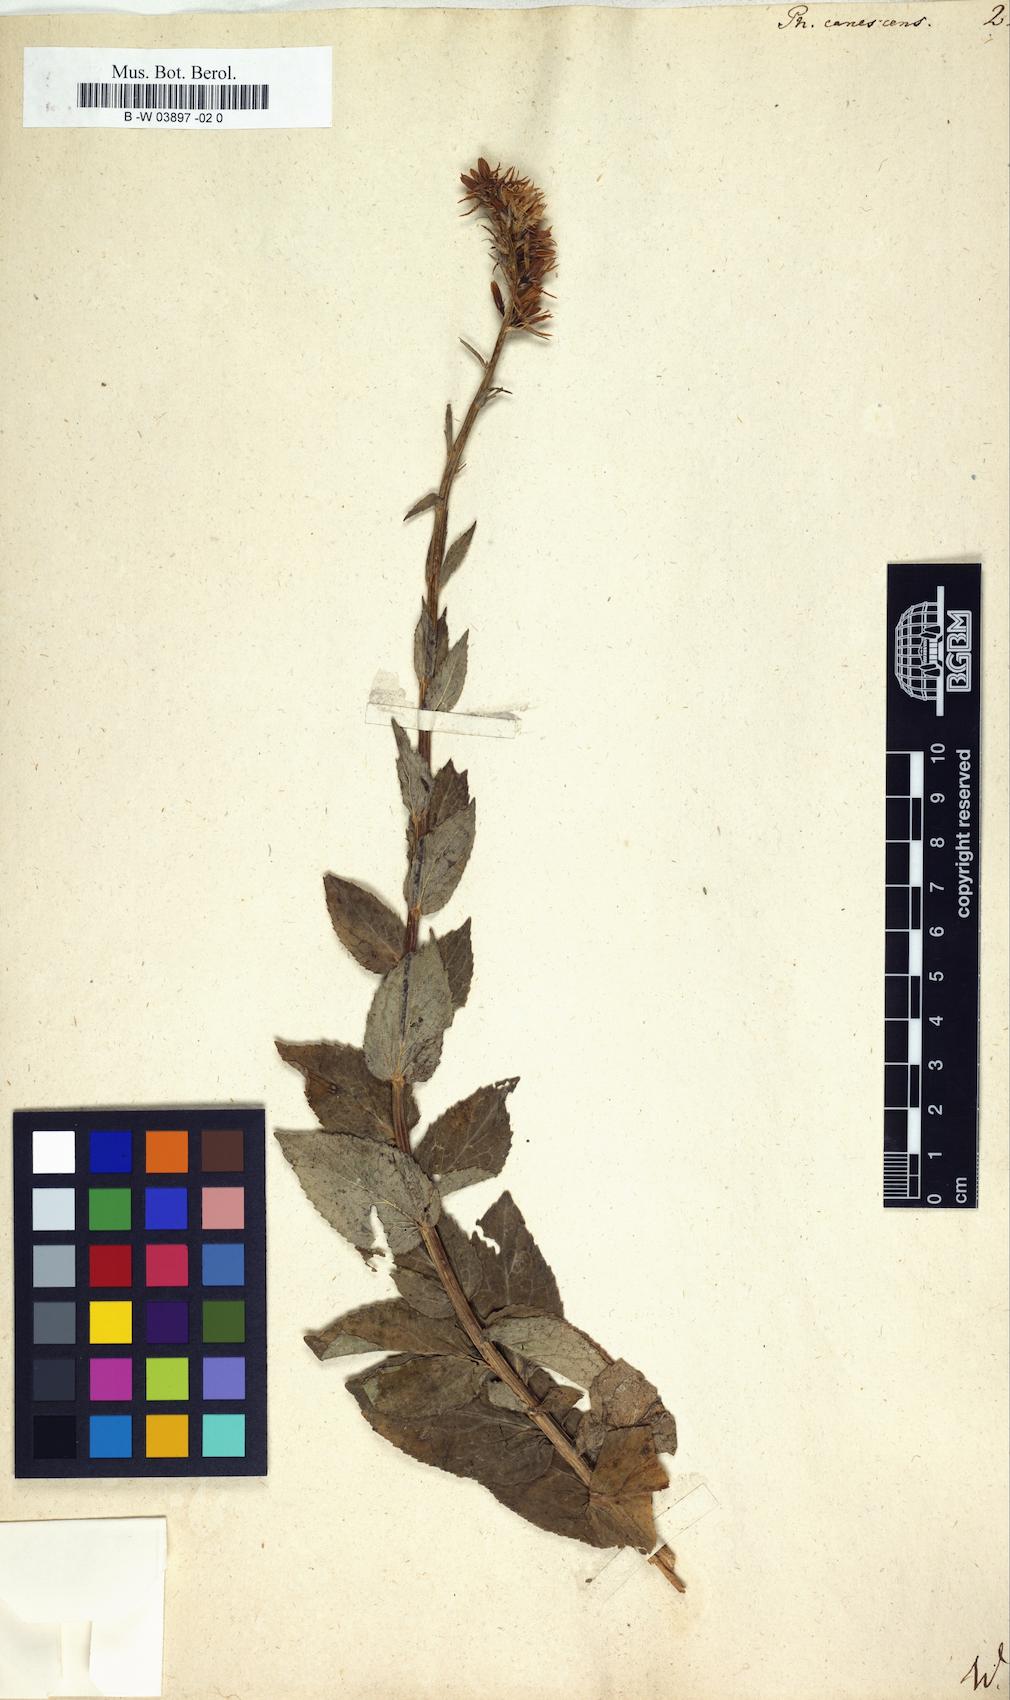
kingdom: Plantae
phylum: Tracheophyta
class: Magnoliopsida
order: Asterales
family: Campanulaceae
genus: Asyneuma
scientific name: Asyneuma canescens
